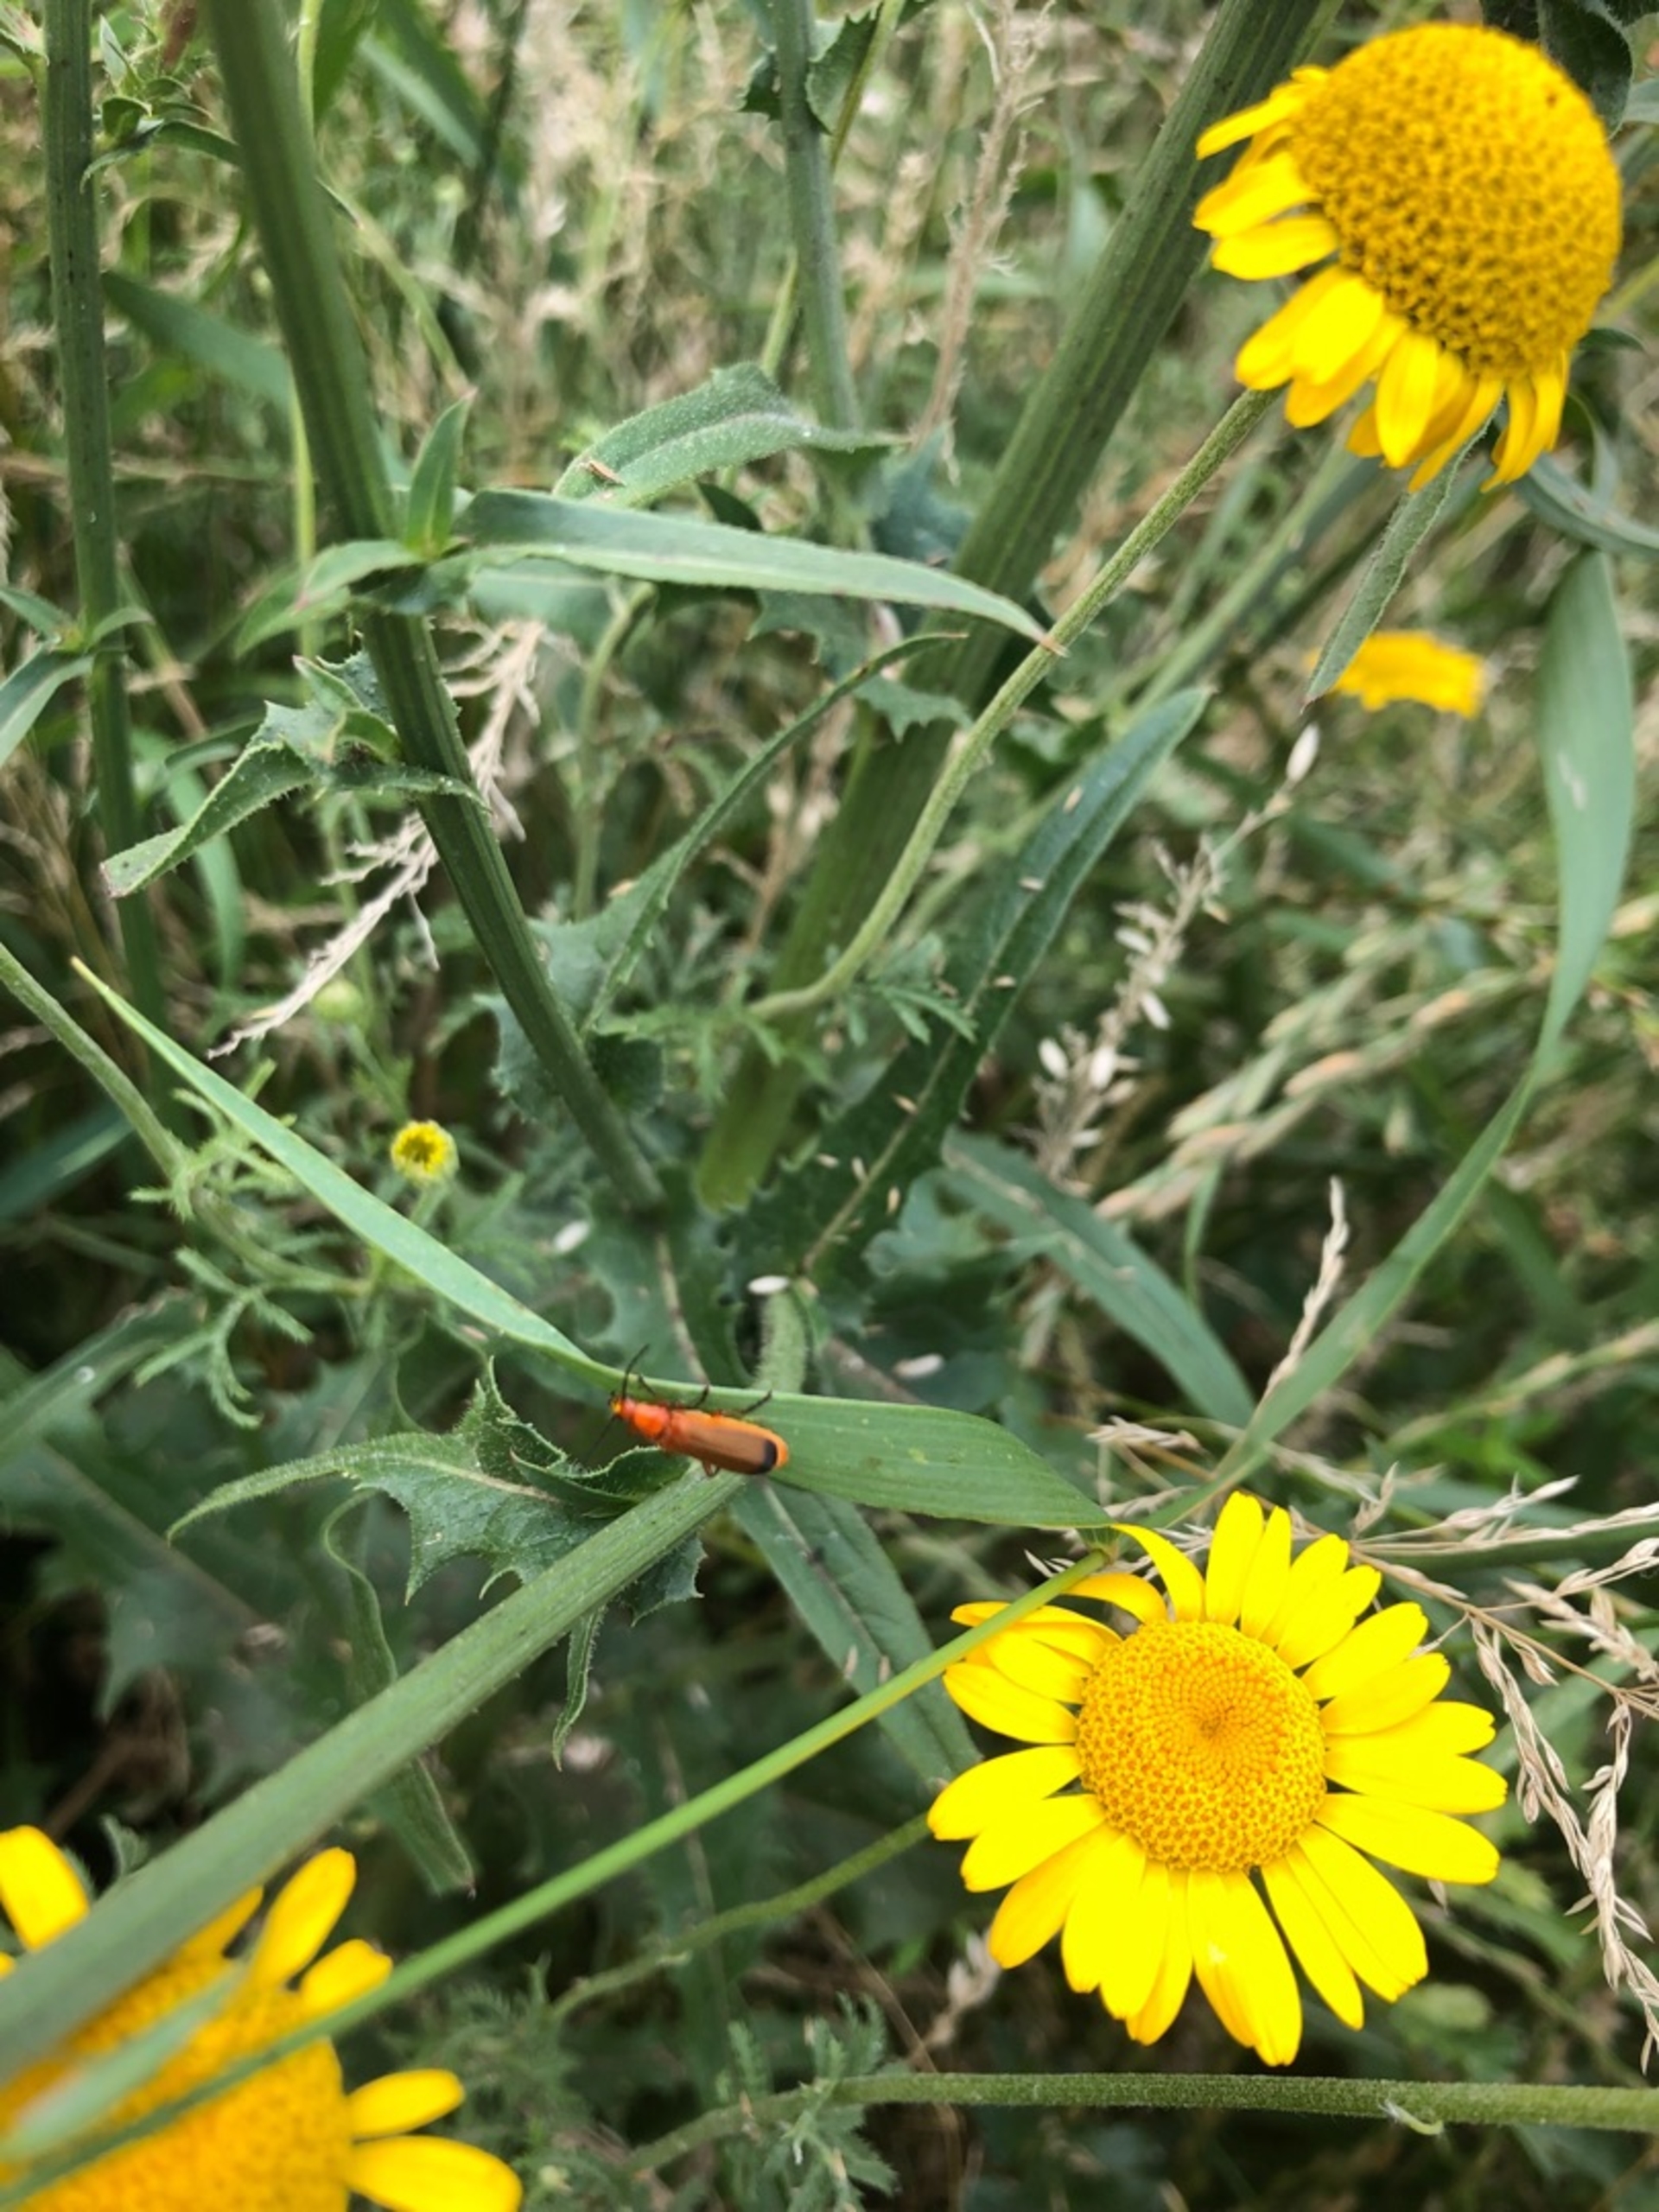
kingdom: Animalia
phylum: Arthropoda
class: Insecta
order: Coleoptera
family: Cantharidae
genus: Rhagonycha
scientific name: Rhagonycha fulva
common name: Præstebille
